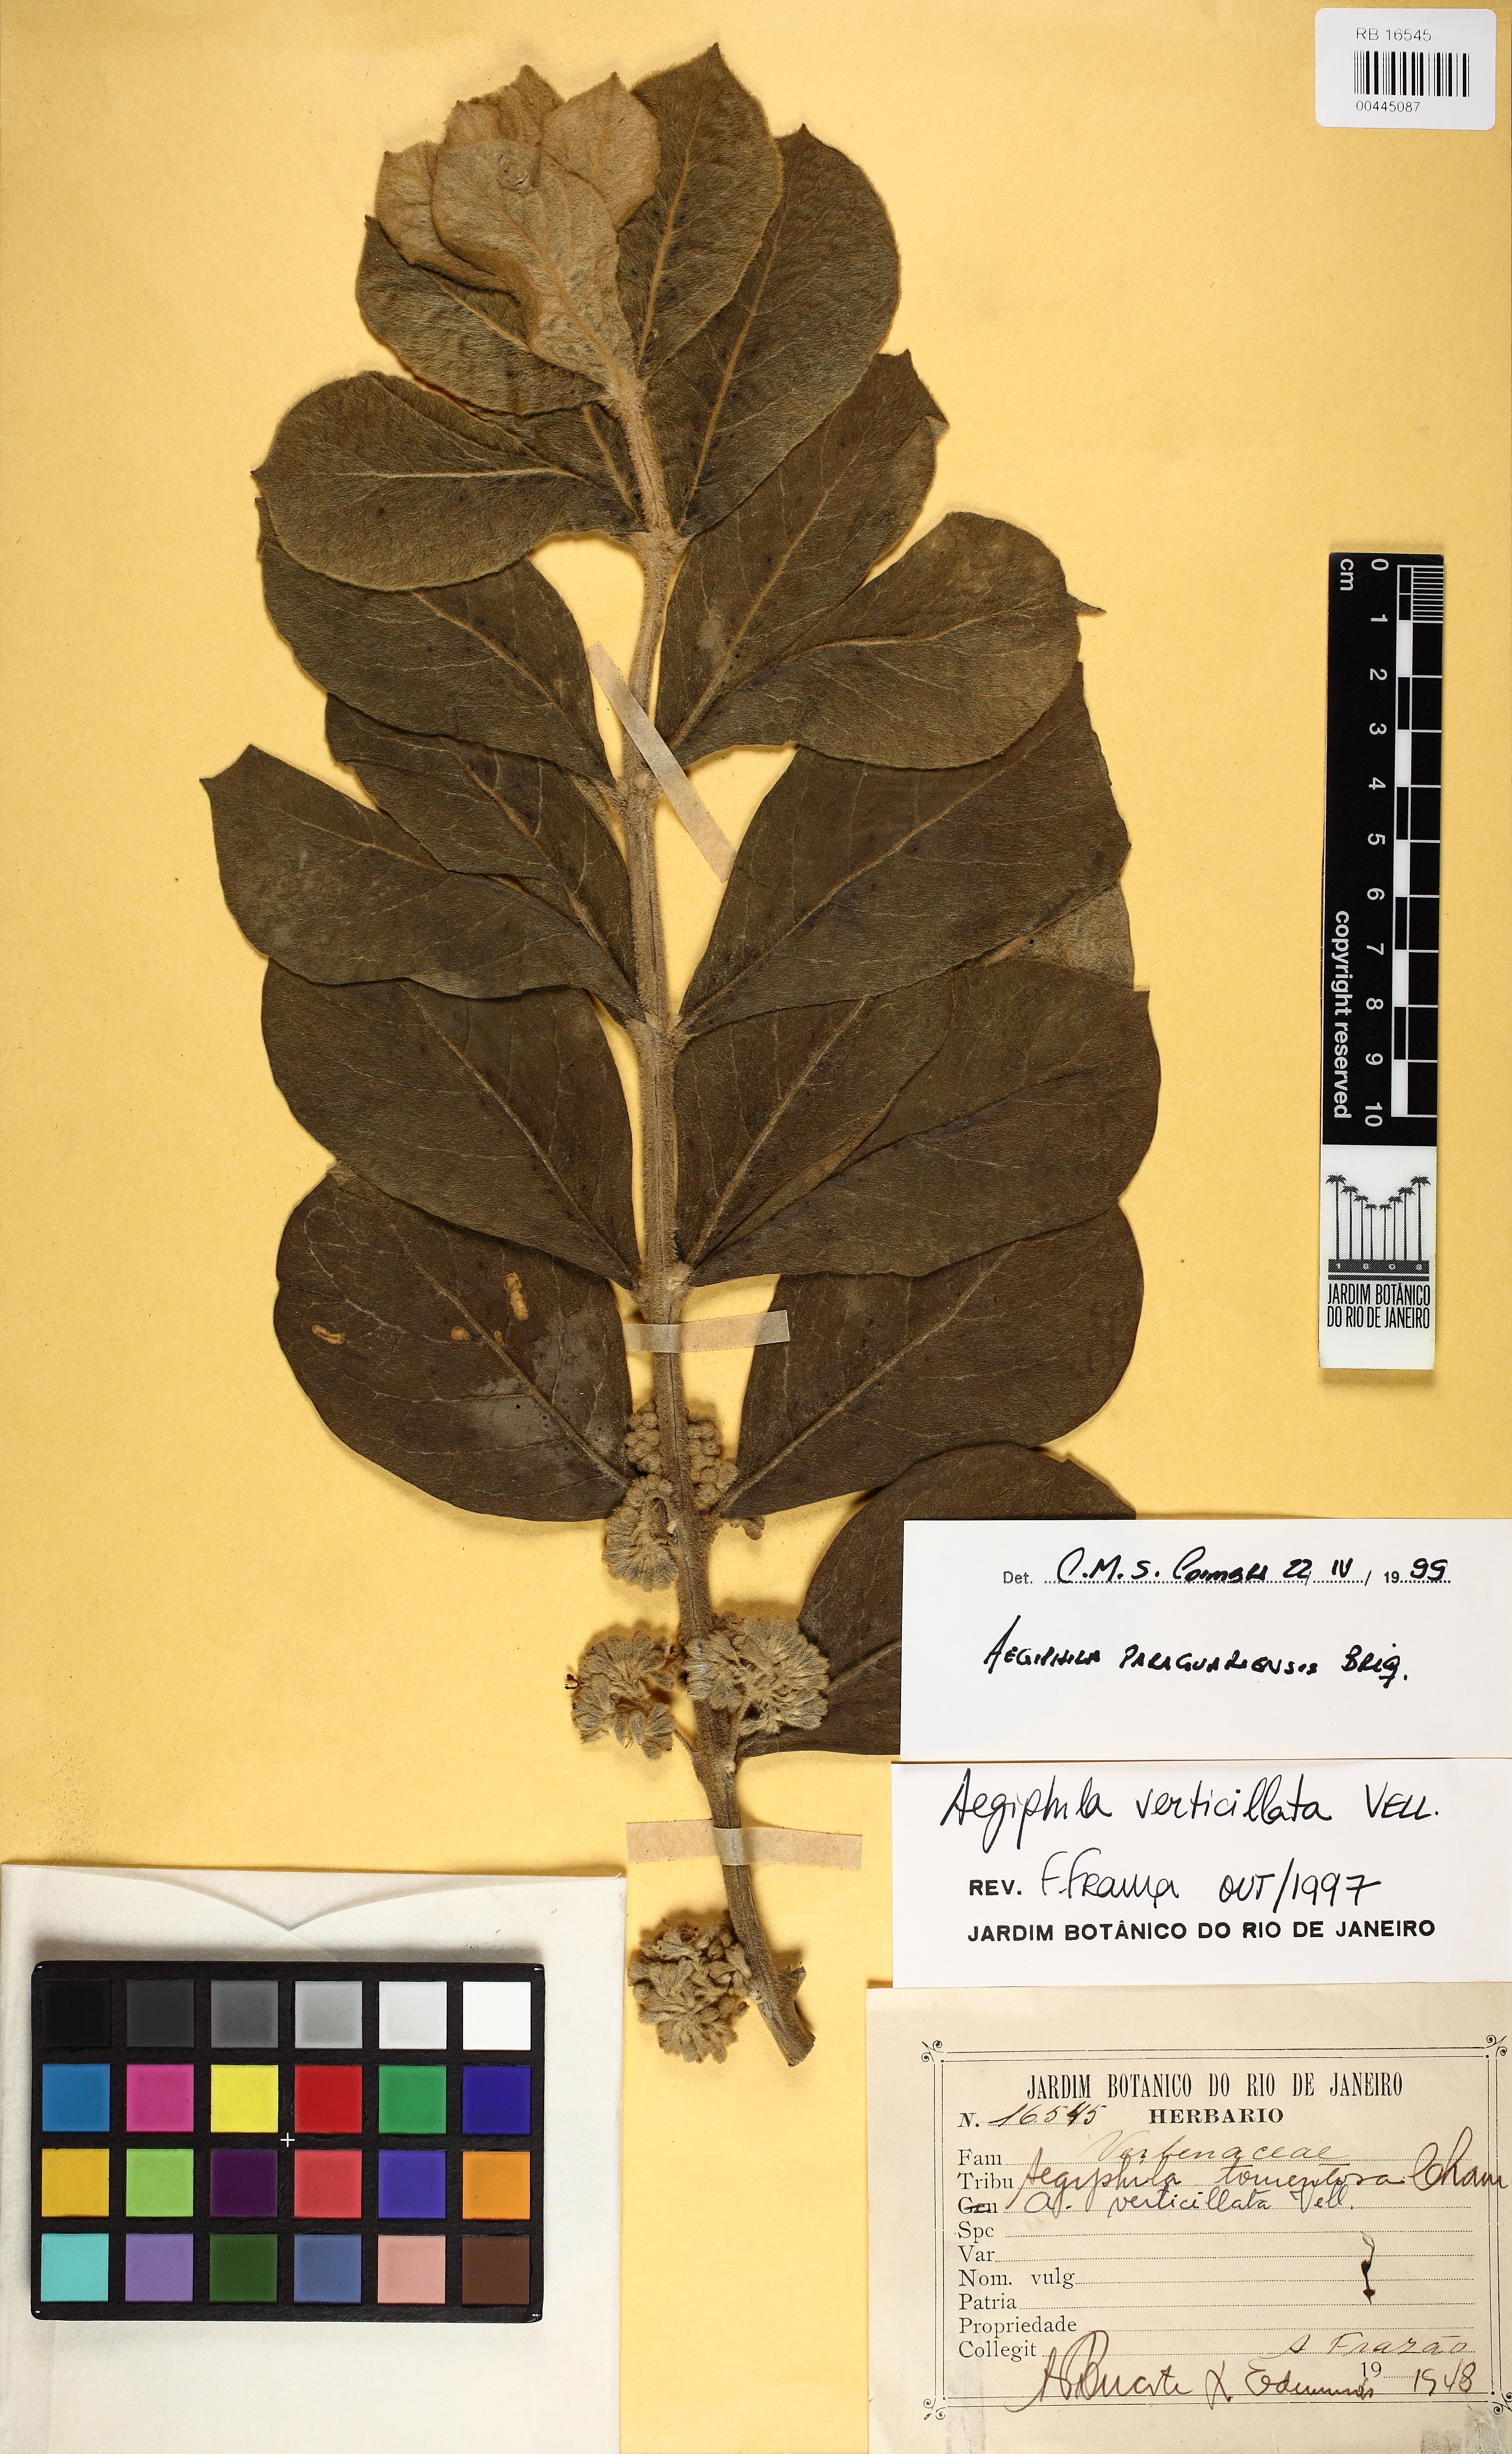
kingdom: Plantae
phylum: Tracheophyta
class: Magnoliopsida
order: Lamiales
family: Lamiaceae
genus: Aegiphila
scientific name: Aegiphila paraguariensis
